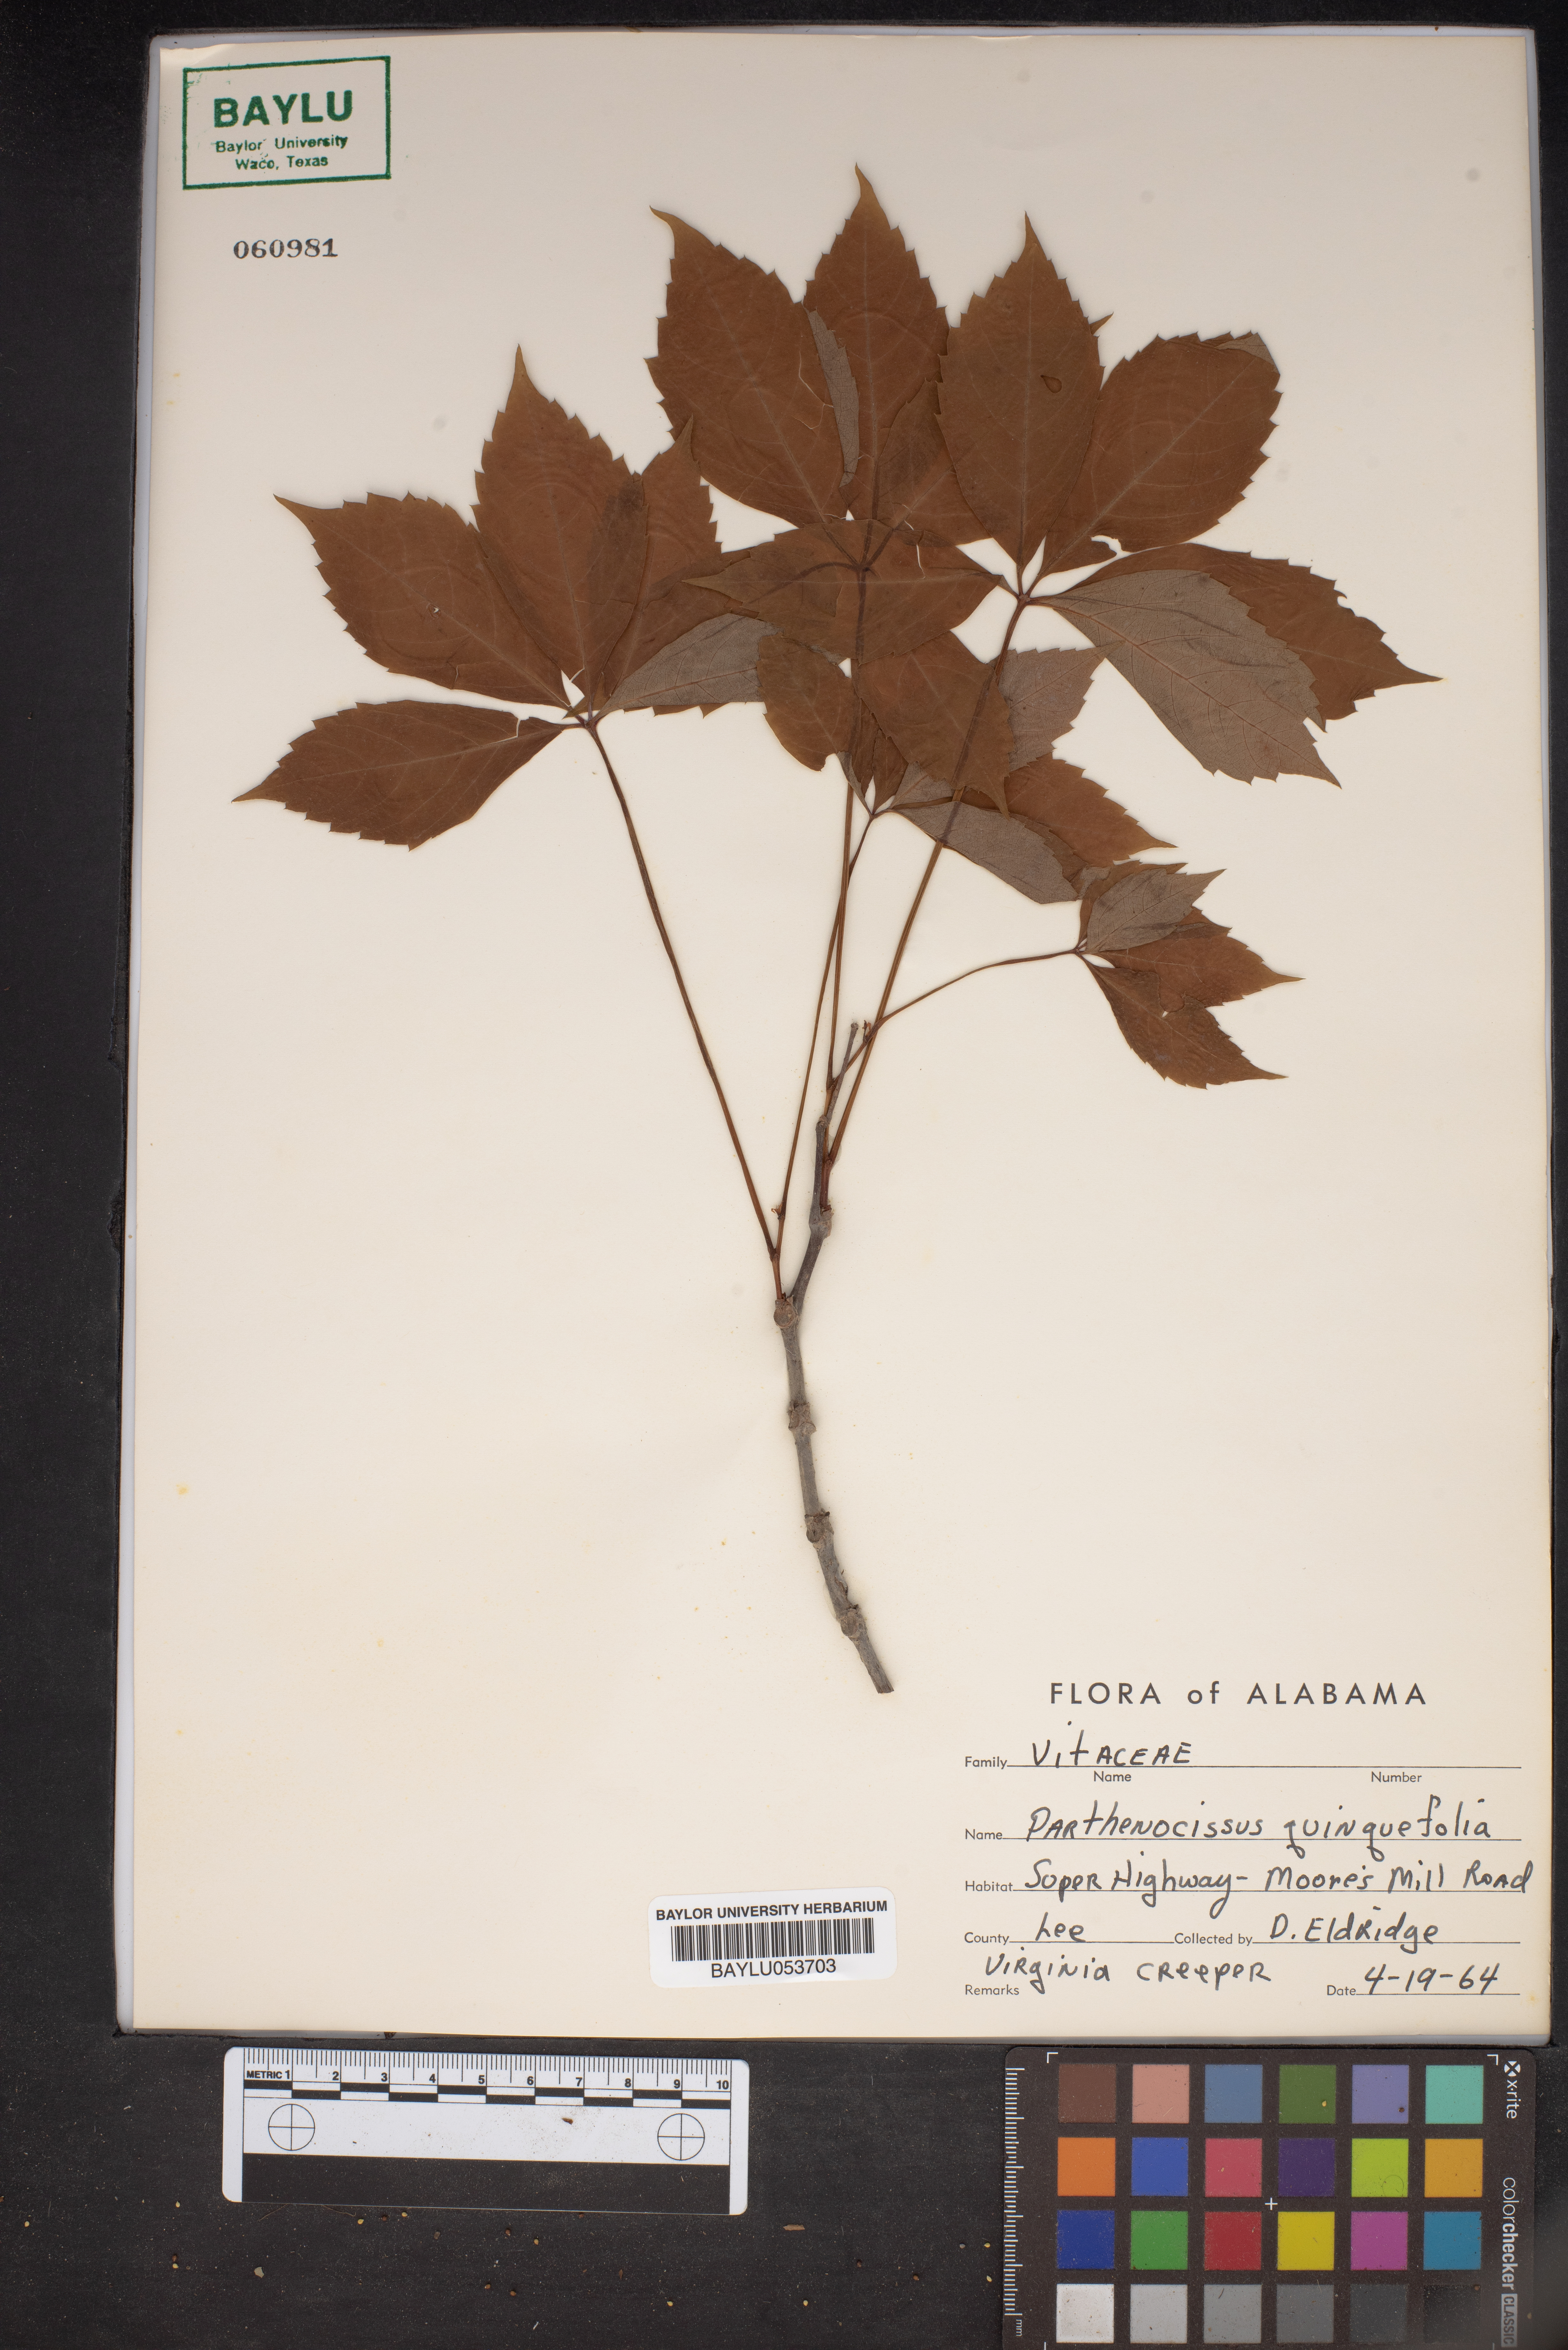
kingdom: Plantae
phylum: Tracheophyta
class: Magnoliopsida
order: Vitales
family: Vitaceae
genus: Parthenocissus
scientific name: Parthenocissus quinquefolia
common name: Virginia-creeper
